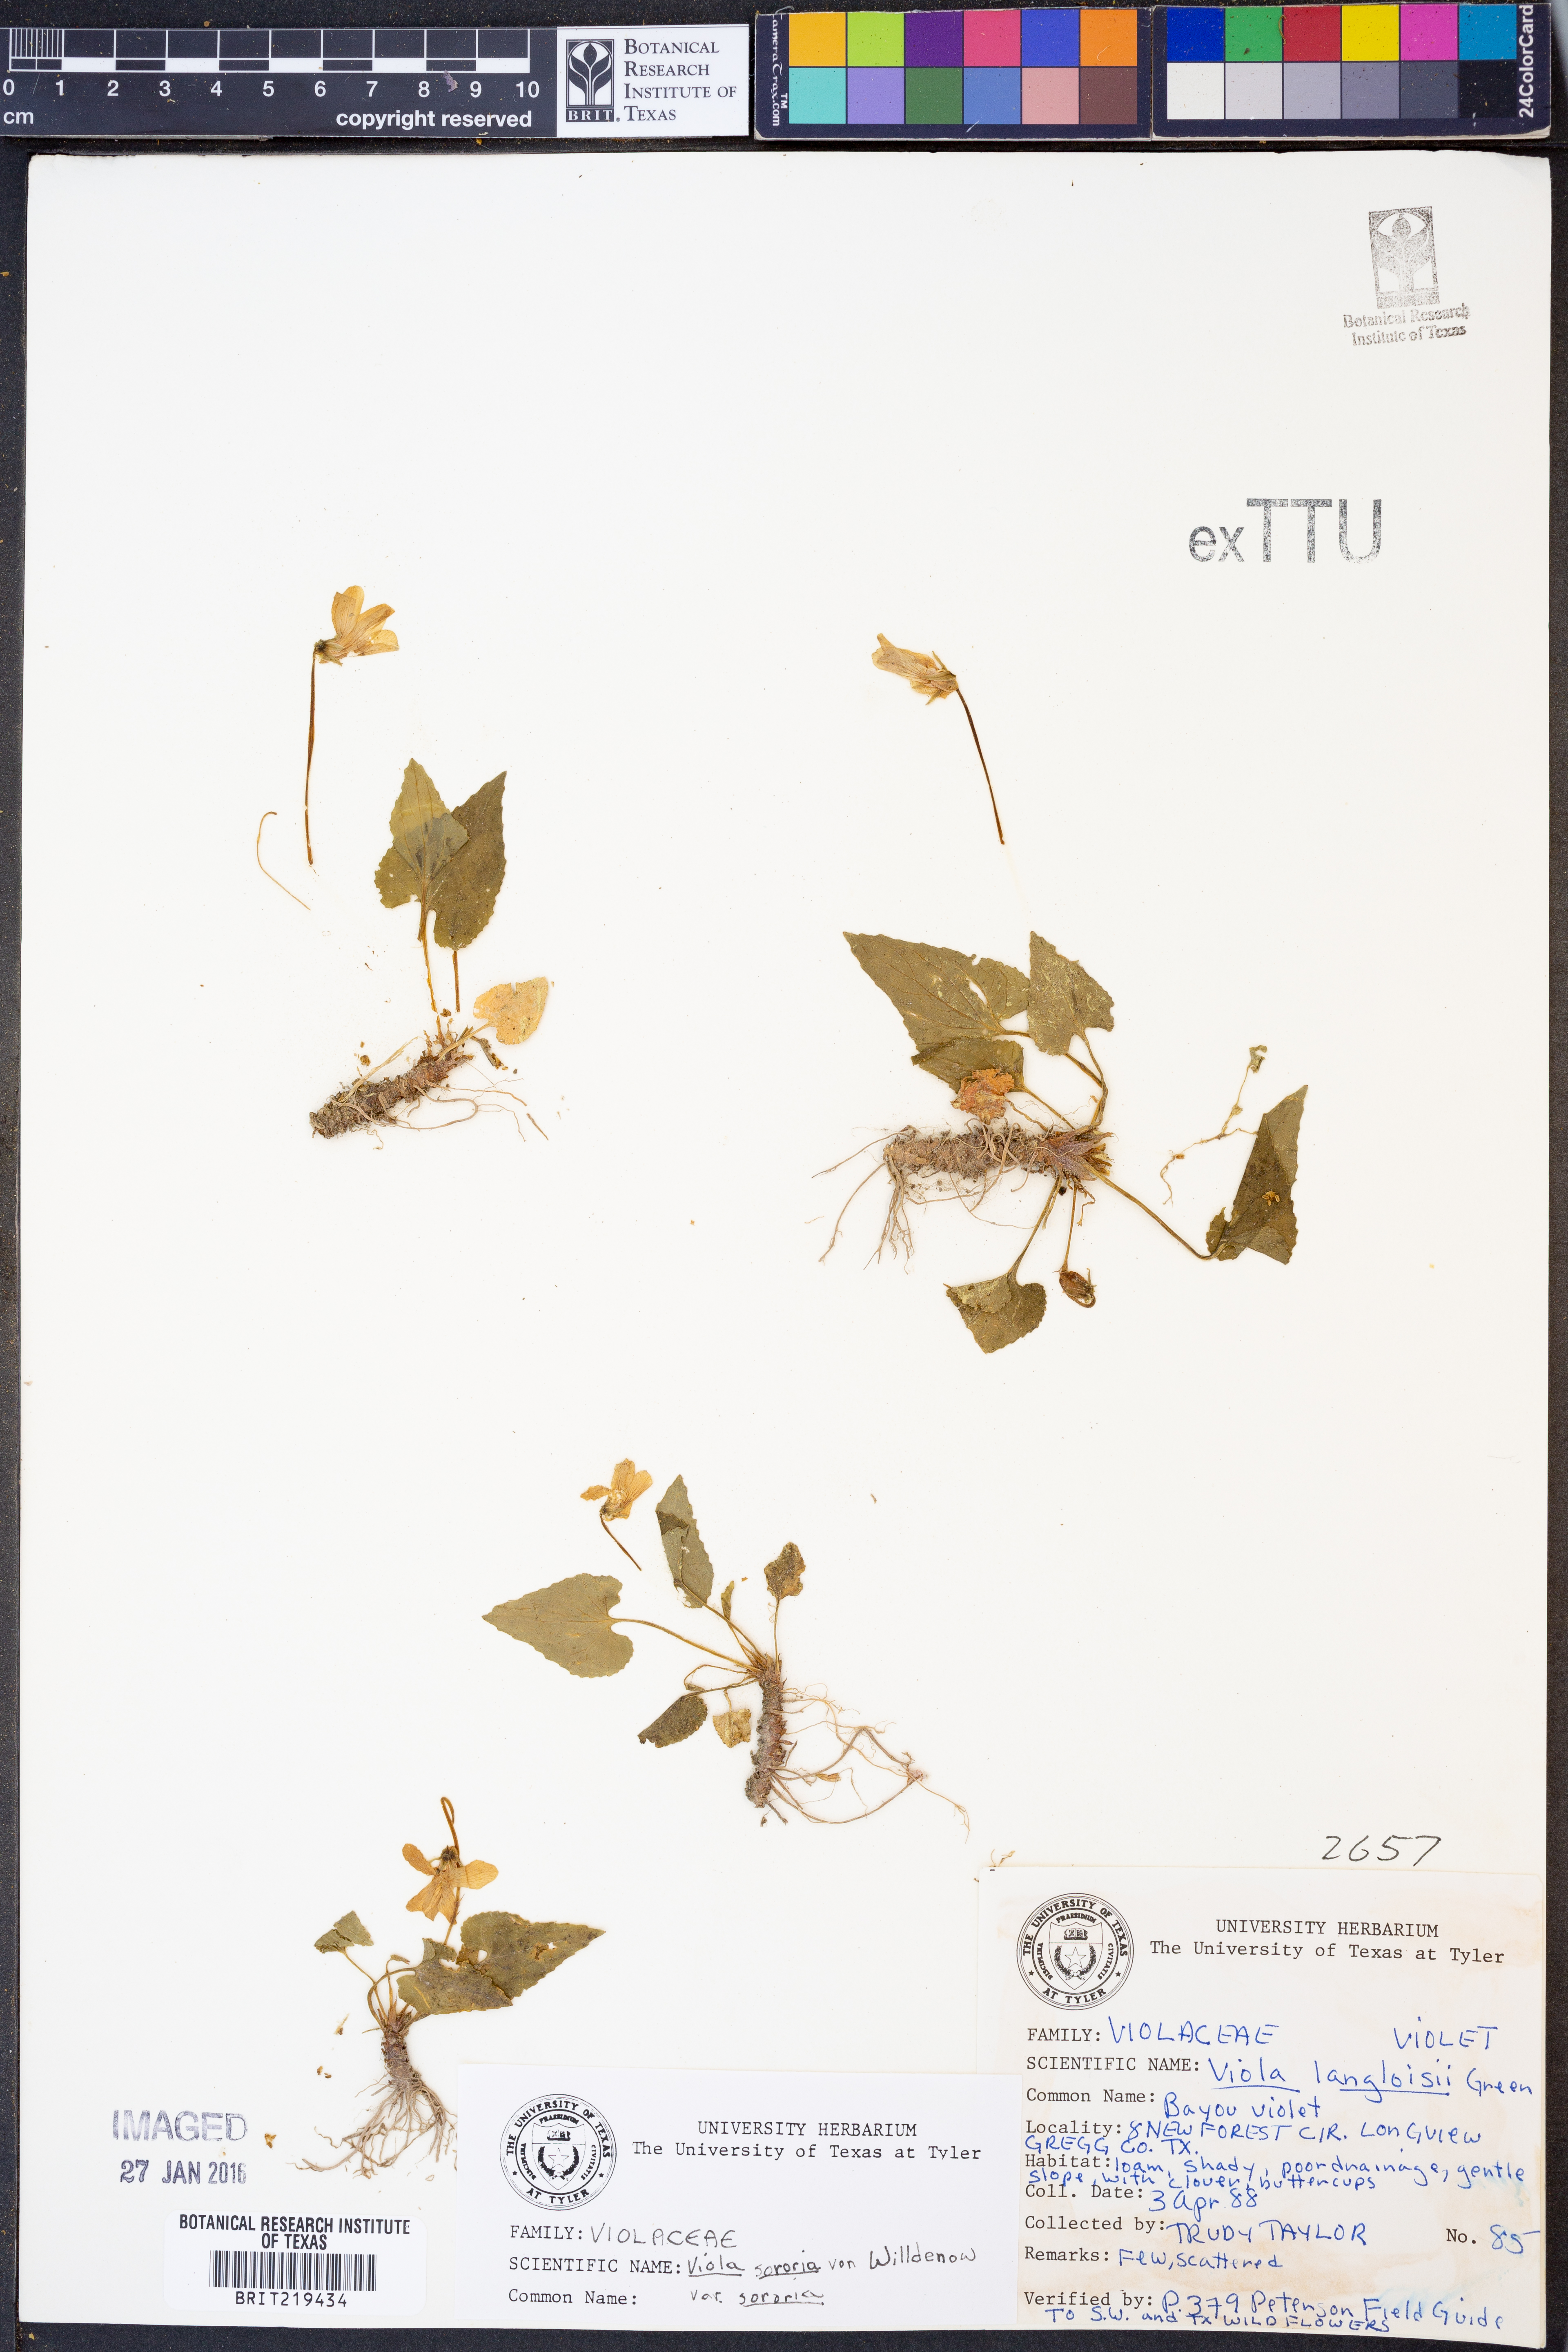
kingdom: Plantae
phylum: Tracheophyta
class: Magnoliopsida
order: Malpighiales
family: Violaceae
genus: Viola
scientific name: Viola sororia
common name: Dooryard violet
